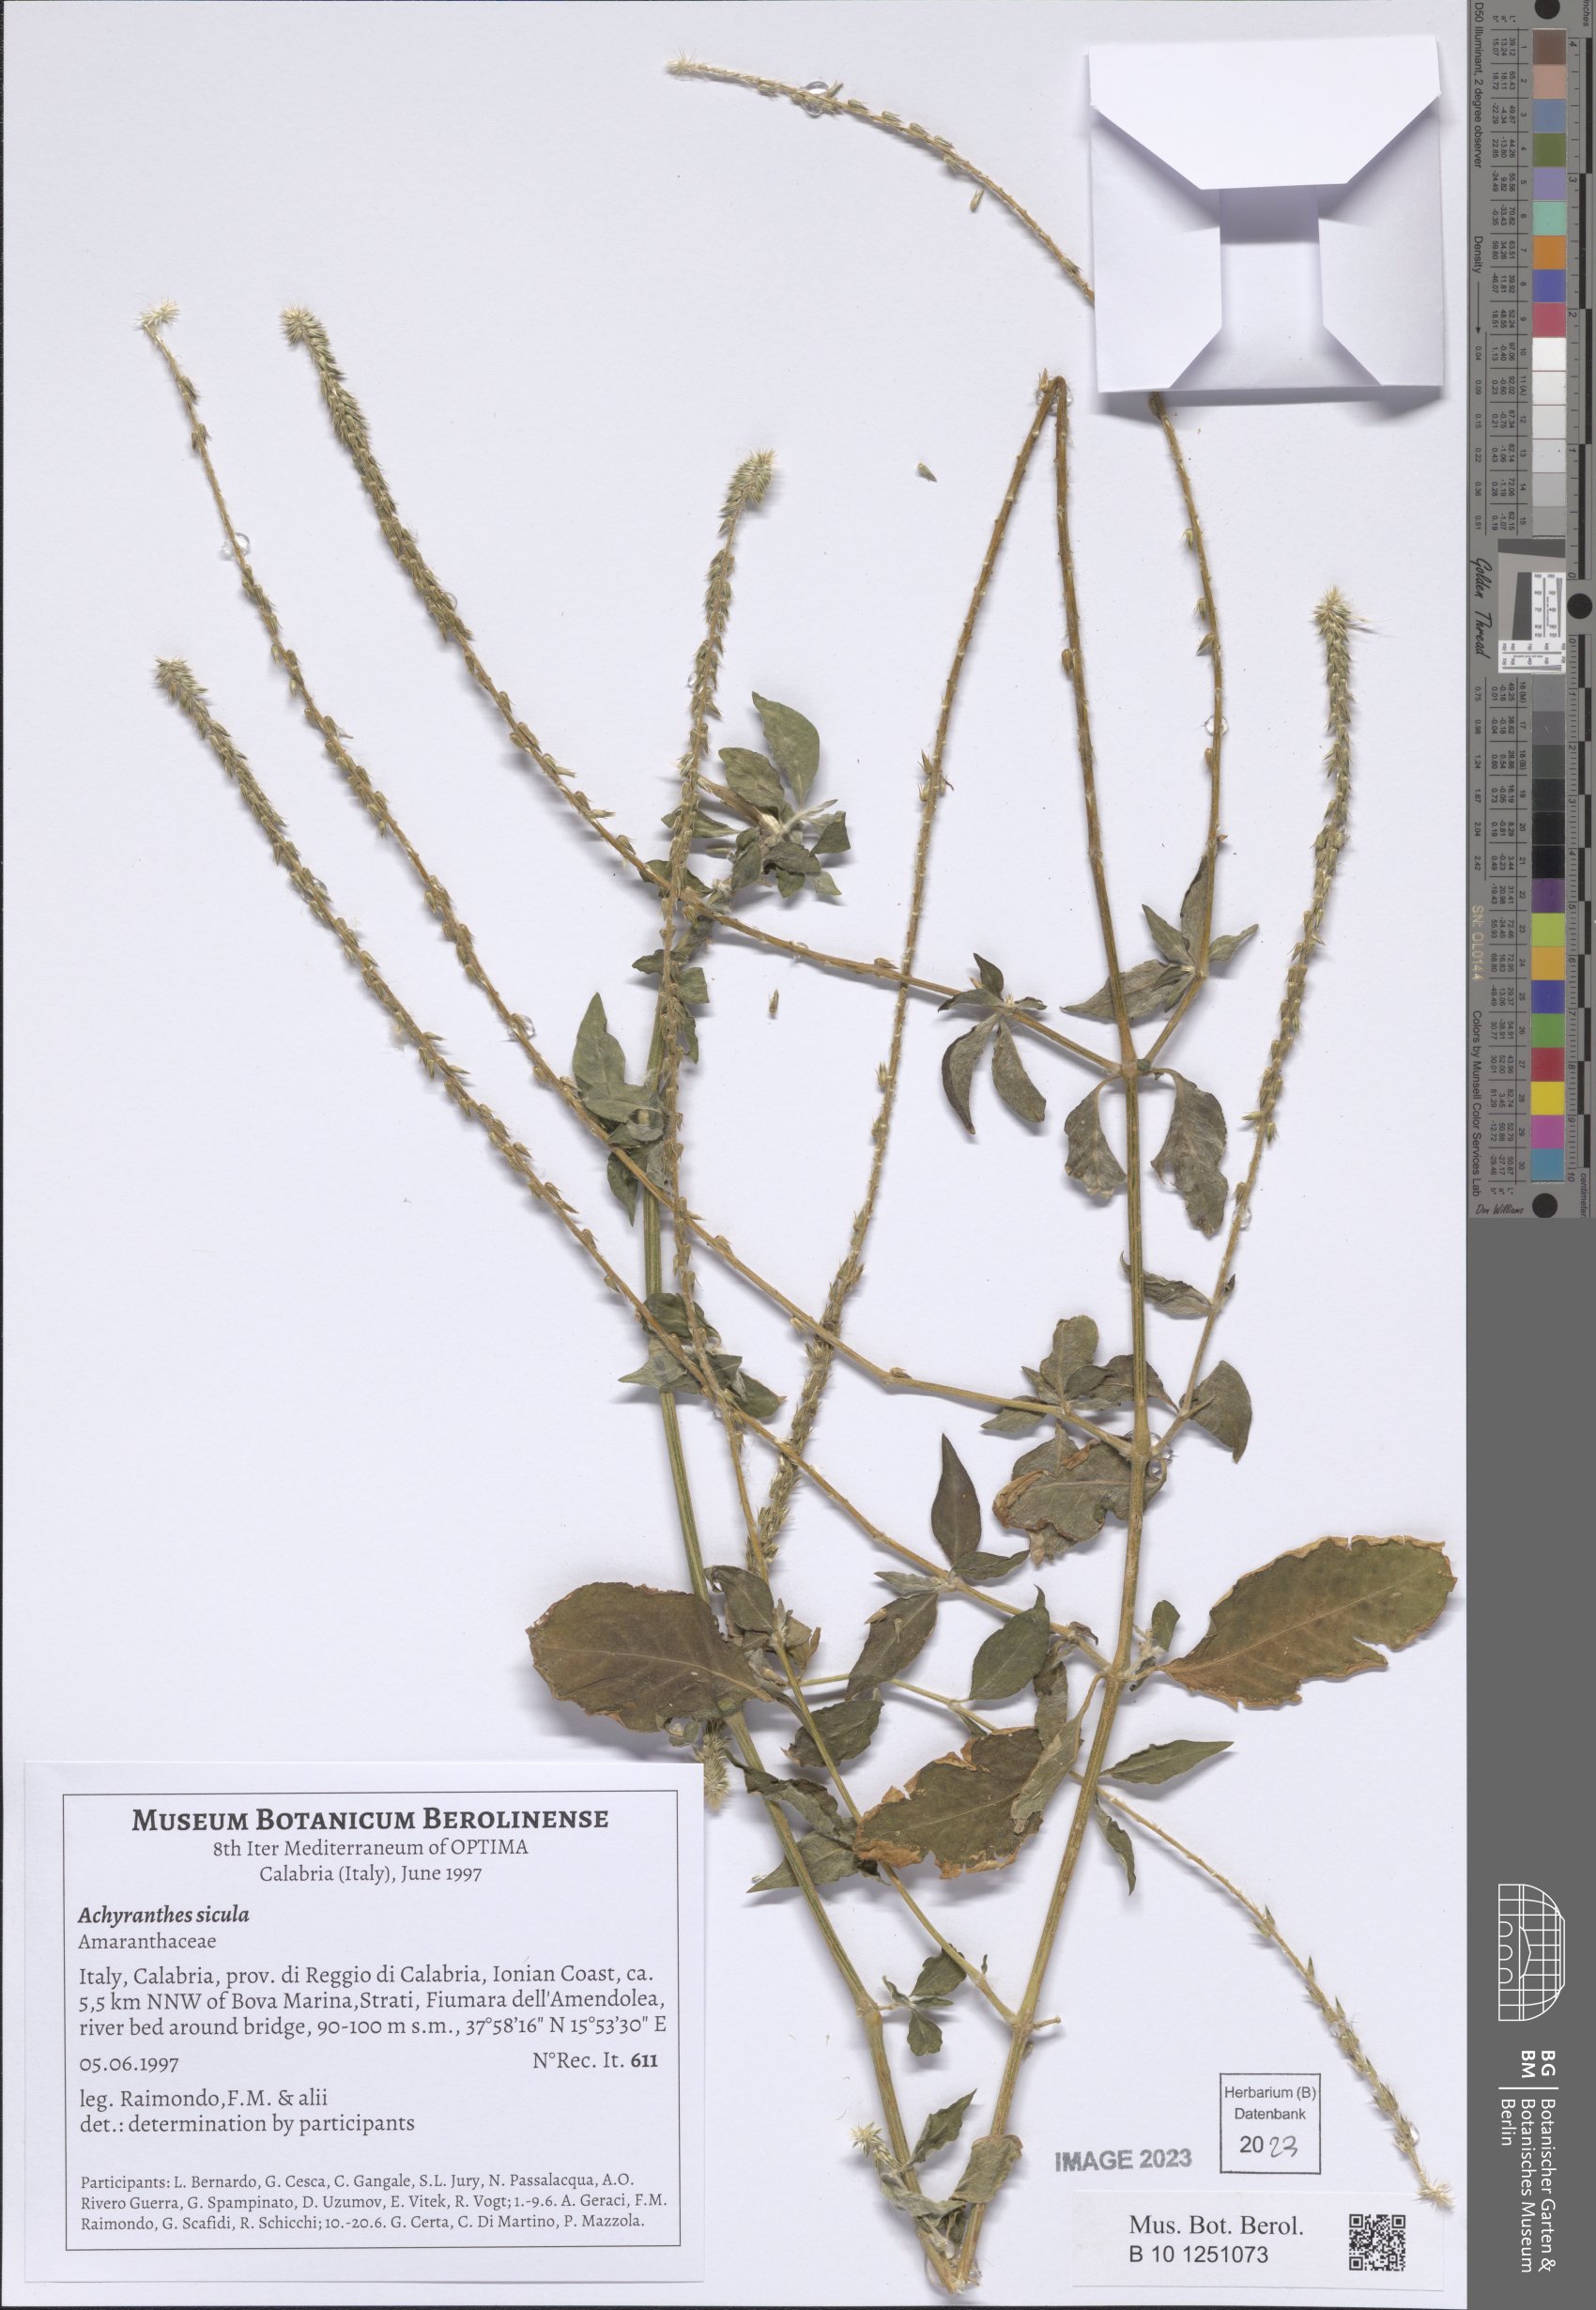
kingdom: Plantae
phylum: Tracheophyta
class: Magnoliopsida
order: Caryophyllales
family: Amaranthaceae
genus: Achyranthes
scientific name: Achyranthes sicula
